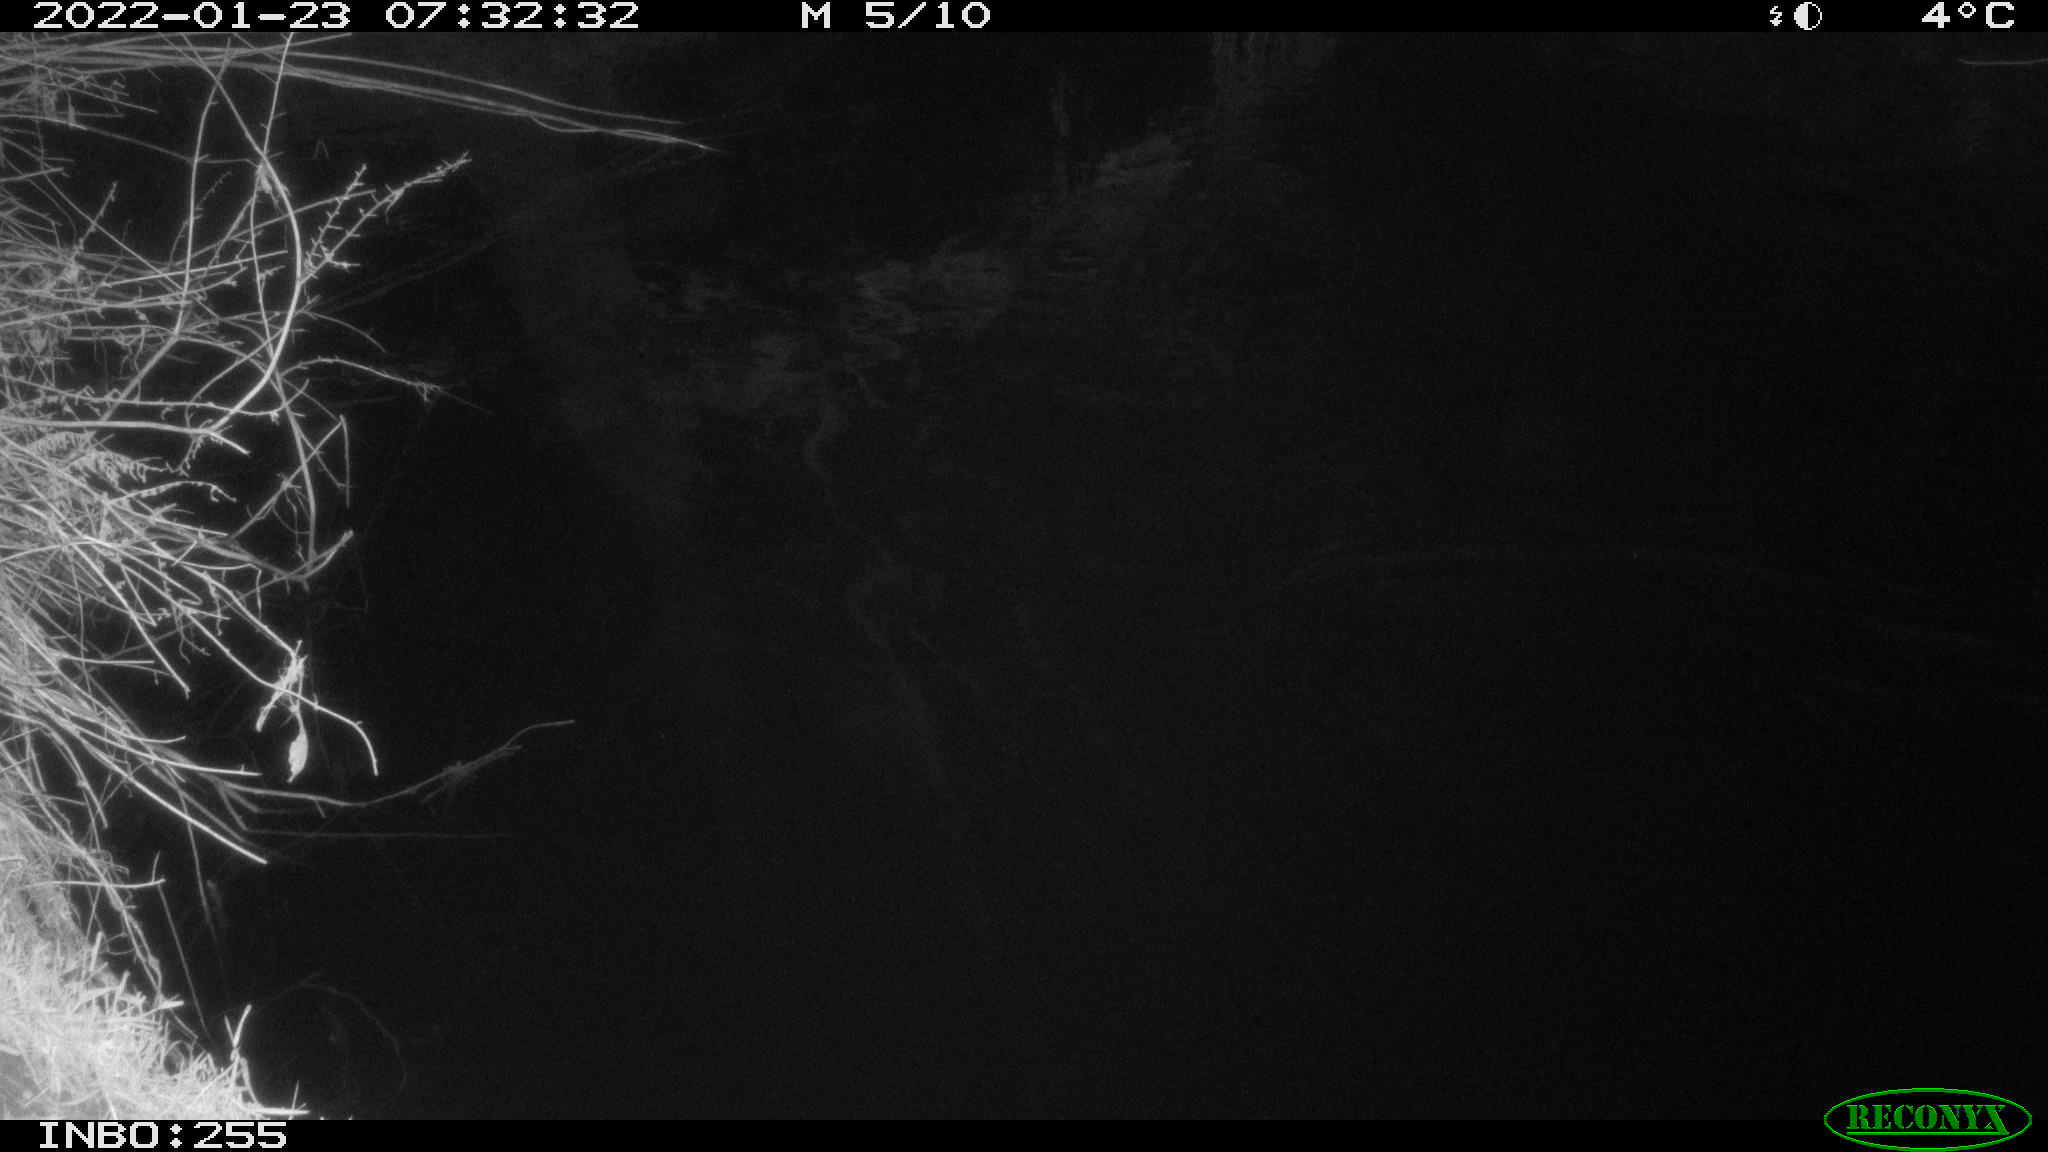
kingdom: Animalia
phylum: Chordata
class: Aves
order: Anseriformes
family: Anatidae
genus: Anas
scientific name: Anas
